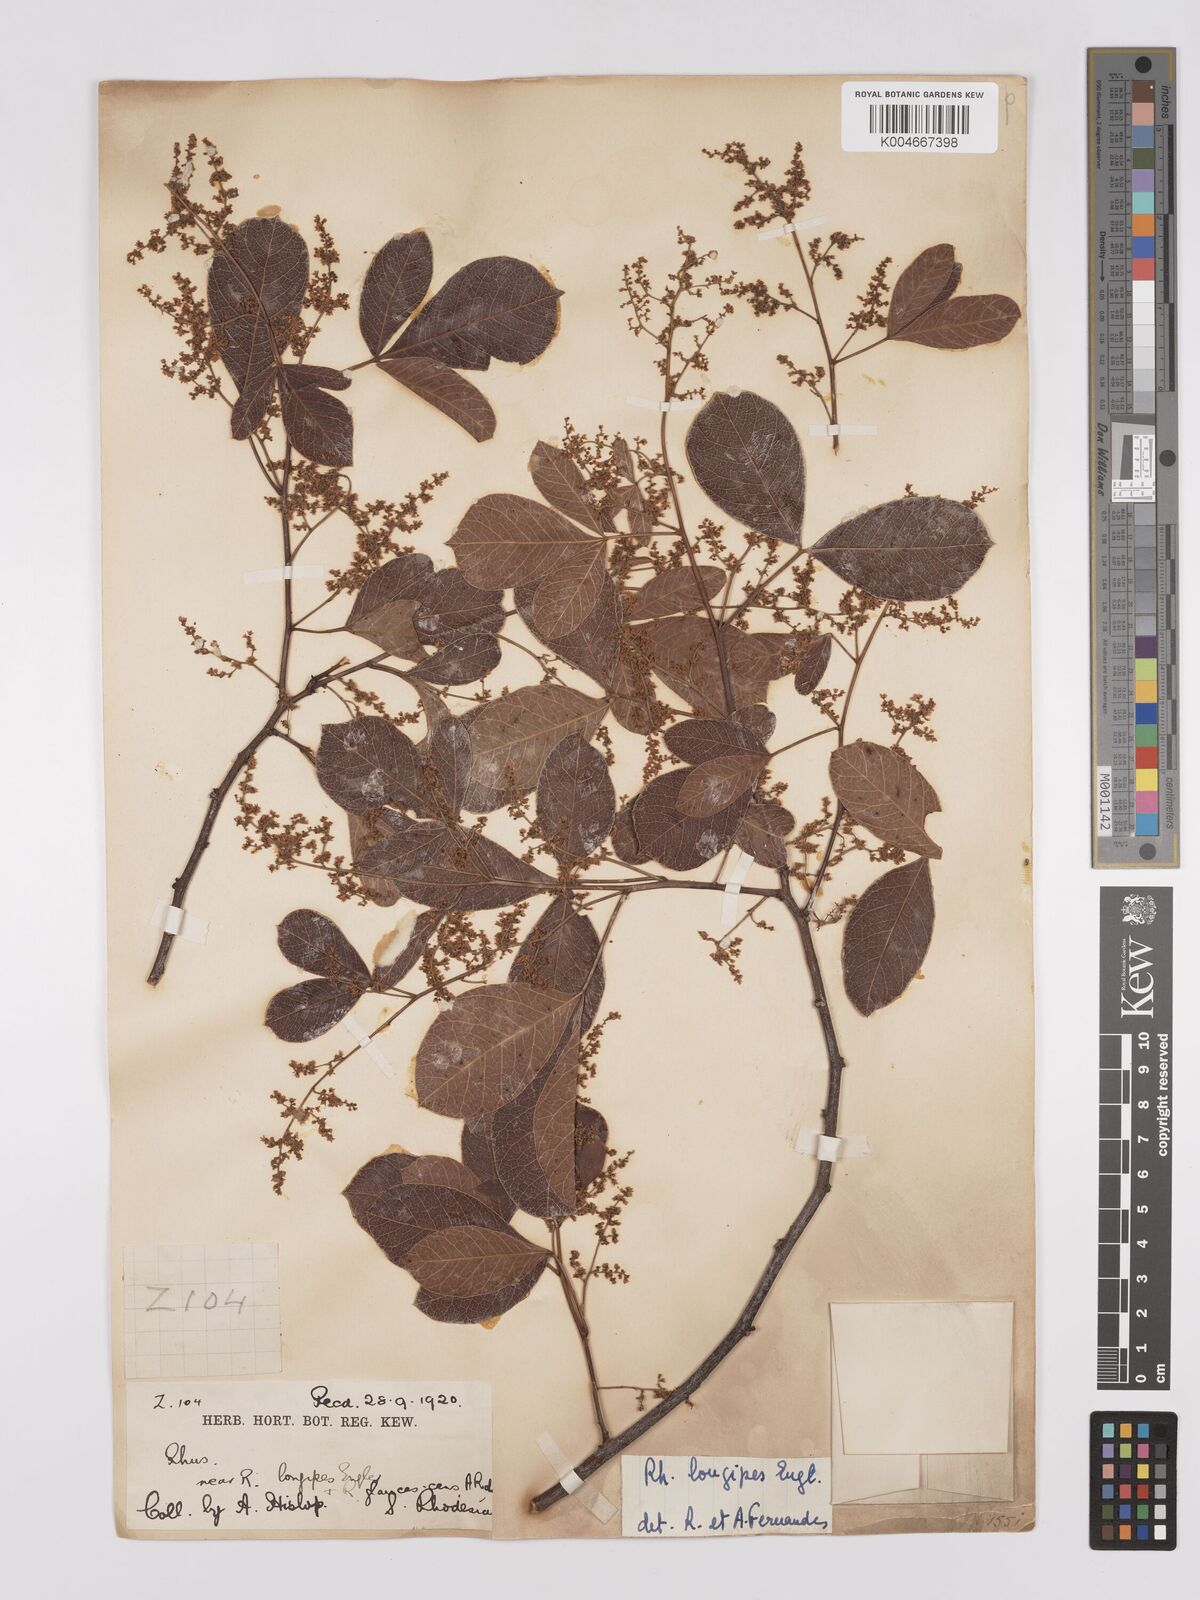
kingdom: Plantae
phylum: Tracheophyta
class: Magnoliopsida
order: Sapindales
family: Anacardiaceae
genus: Searsia
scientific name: Searsia longipes
